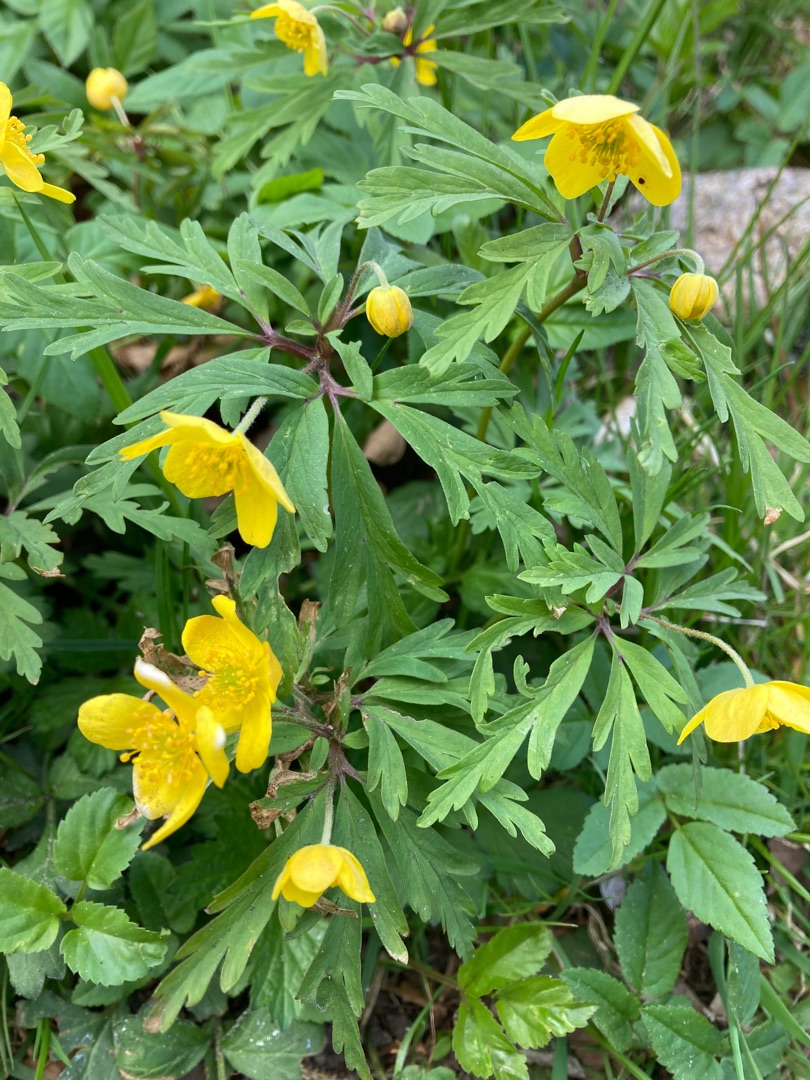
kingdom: Plantae
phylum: Tracheophyta
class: Magnoliopsida
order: Ranunculales
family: Ranunculaceae
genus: Anemone
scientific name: Anemone ranunculoides
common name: Gul anemone
